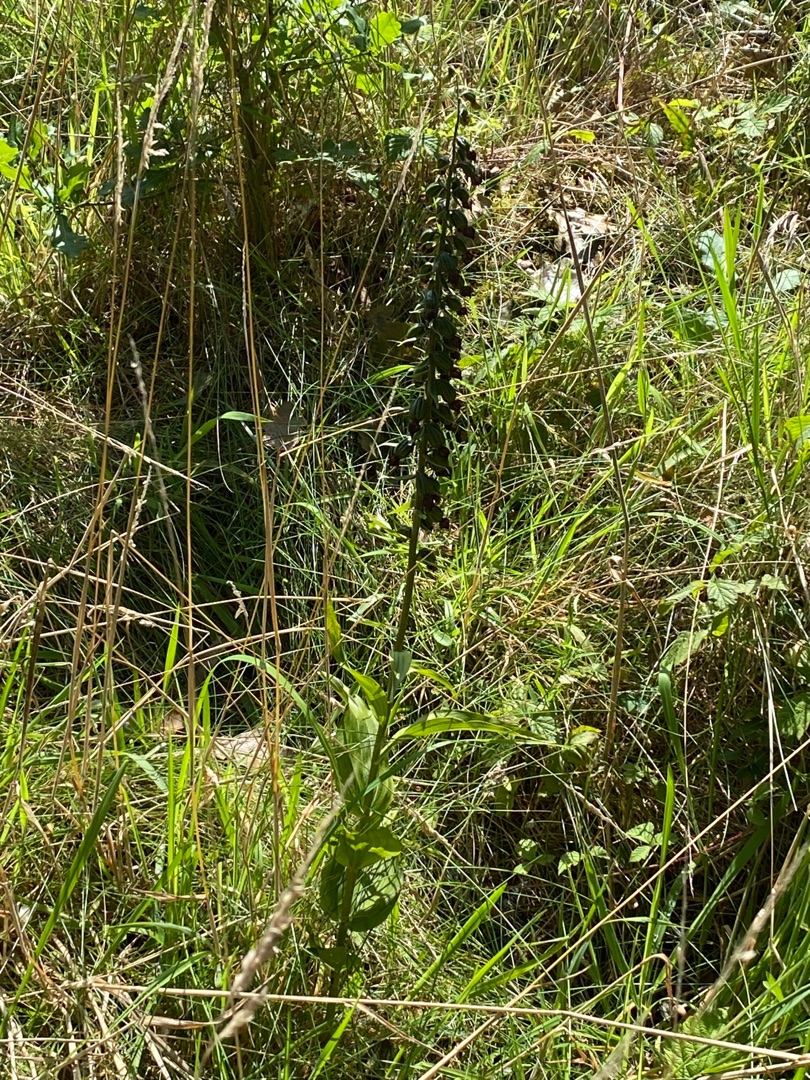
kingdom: Plantae
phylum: Tracheophyta
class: Liliopsida
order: Asparagales
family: Orchidaceae
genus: Epipactis
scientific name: Epipactis helleborine
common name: Skov-hullæbe
